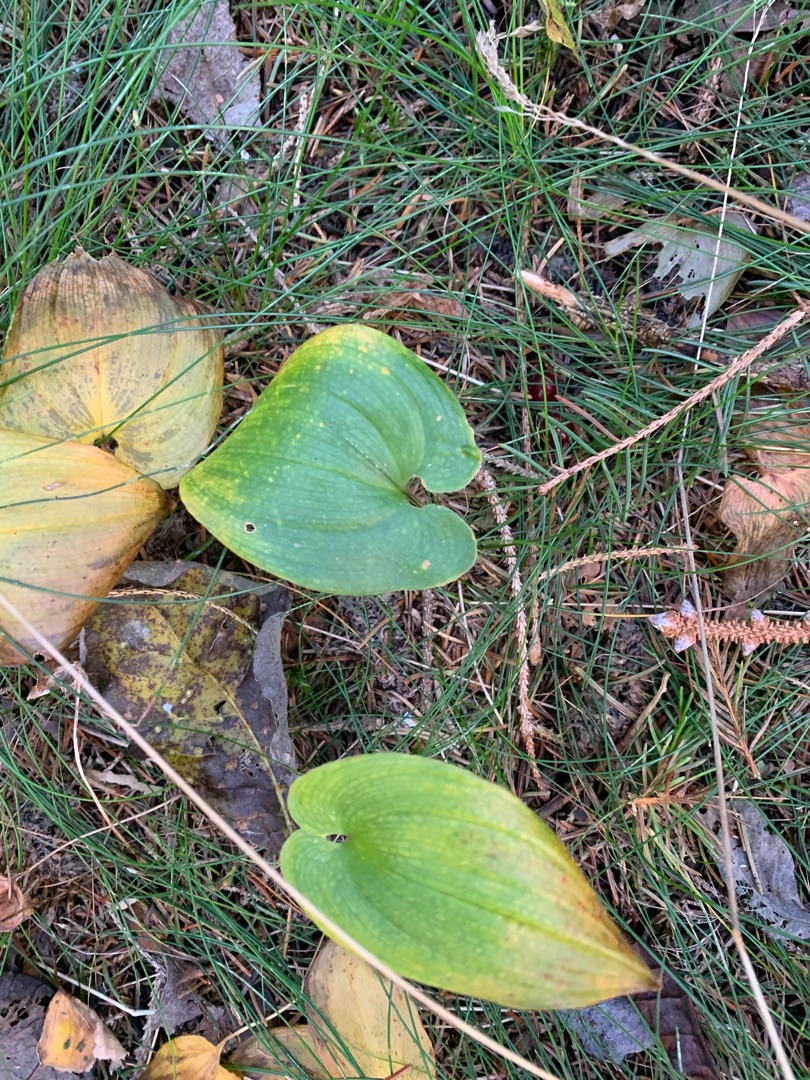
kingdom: Plantae
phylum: Tracheophyta
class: Liliopsida
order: Asparagales
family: Asparagaceae
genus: Maianthemum
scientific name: Maianthemum bifolium
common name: Majblomst
